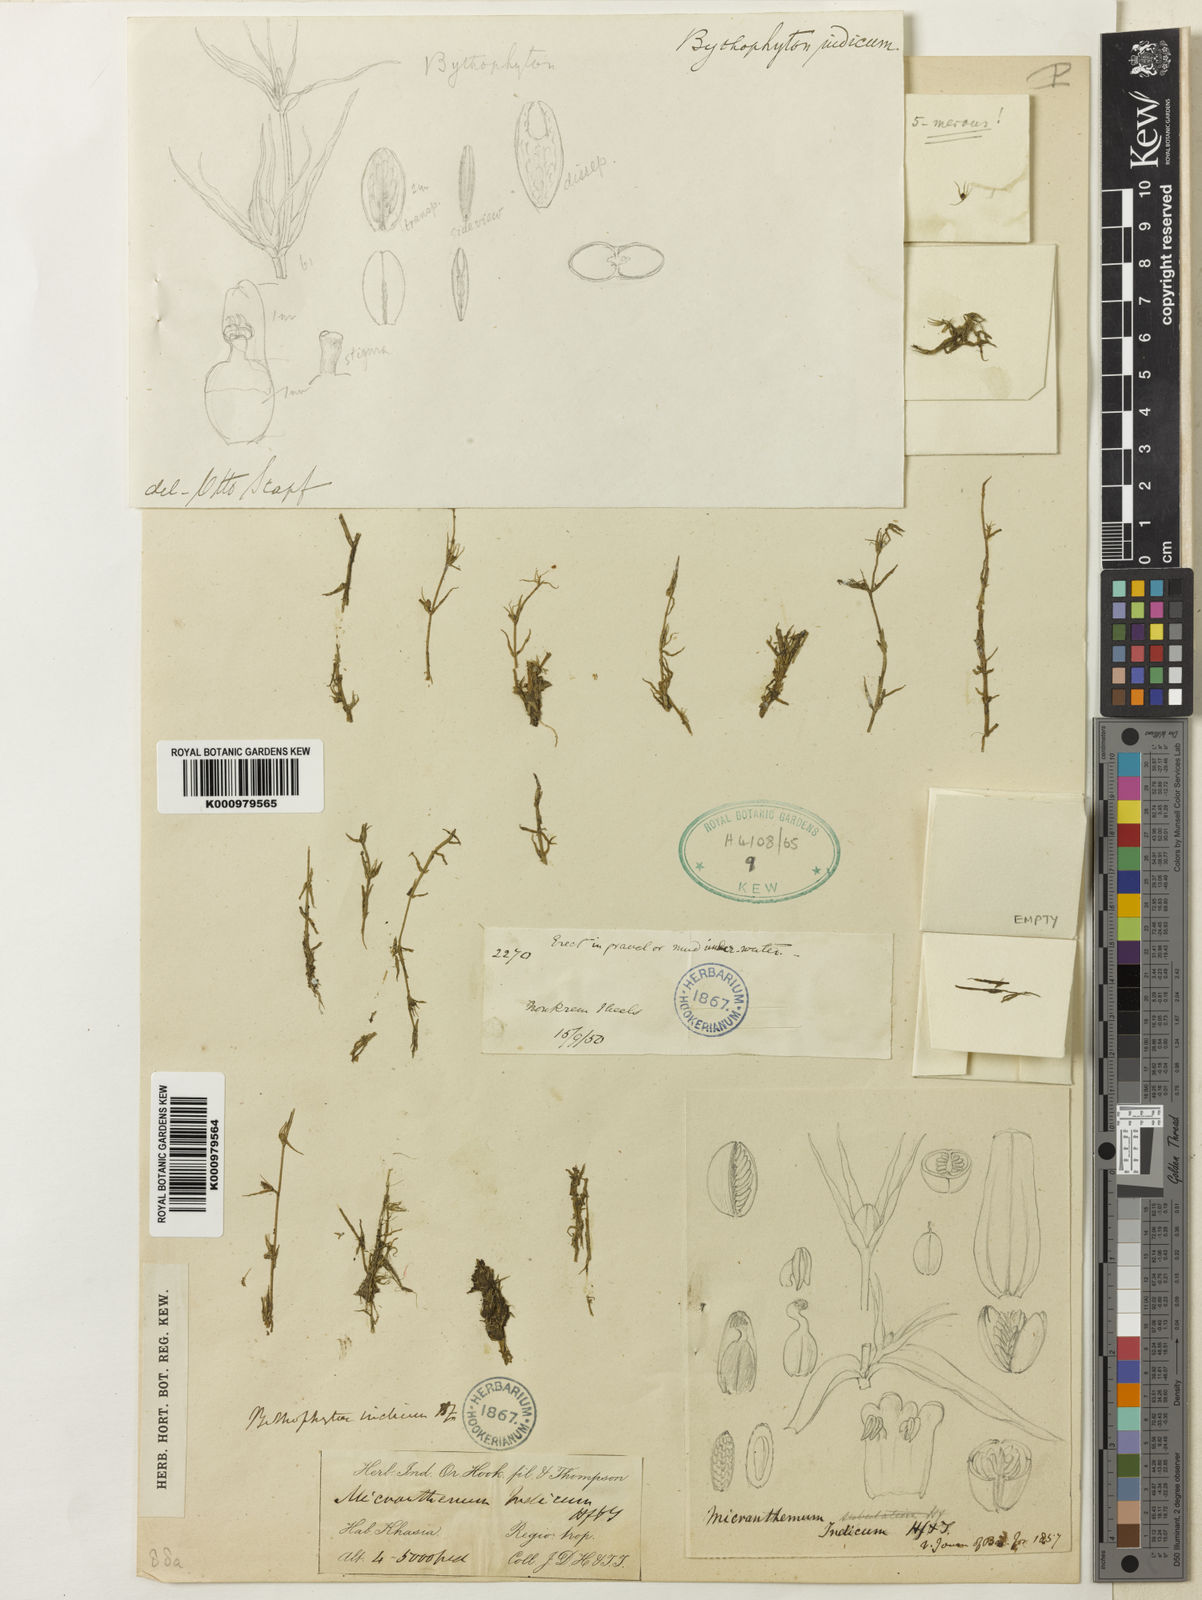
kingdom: Plantae
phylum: Tracheophyta
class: Magnoliopsida
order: Lamiales
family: Phrymaceae
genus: Bythophyton
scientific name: Bythophyton
